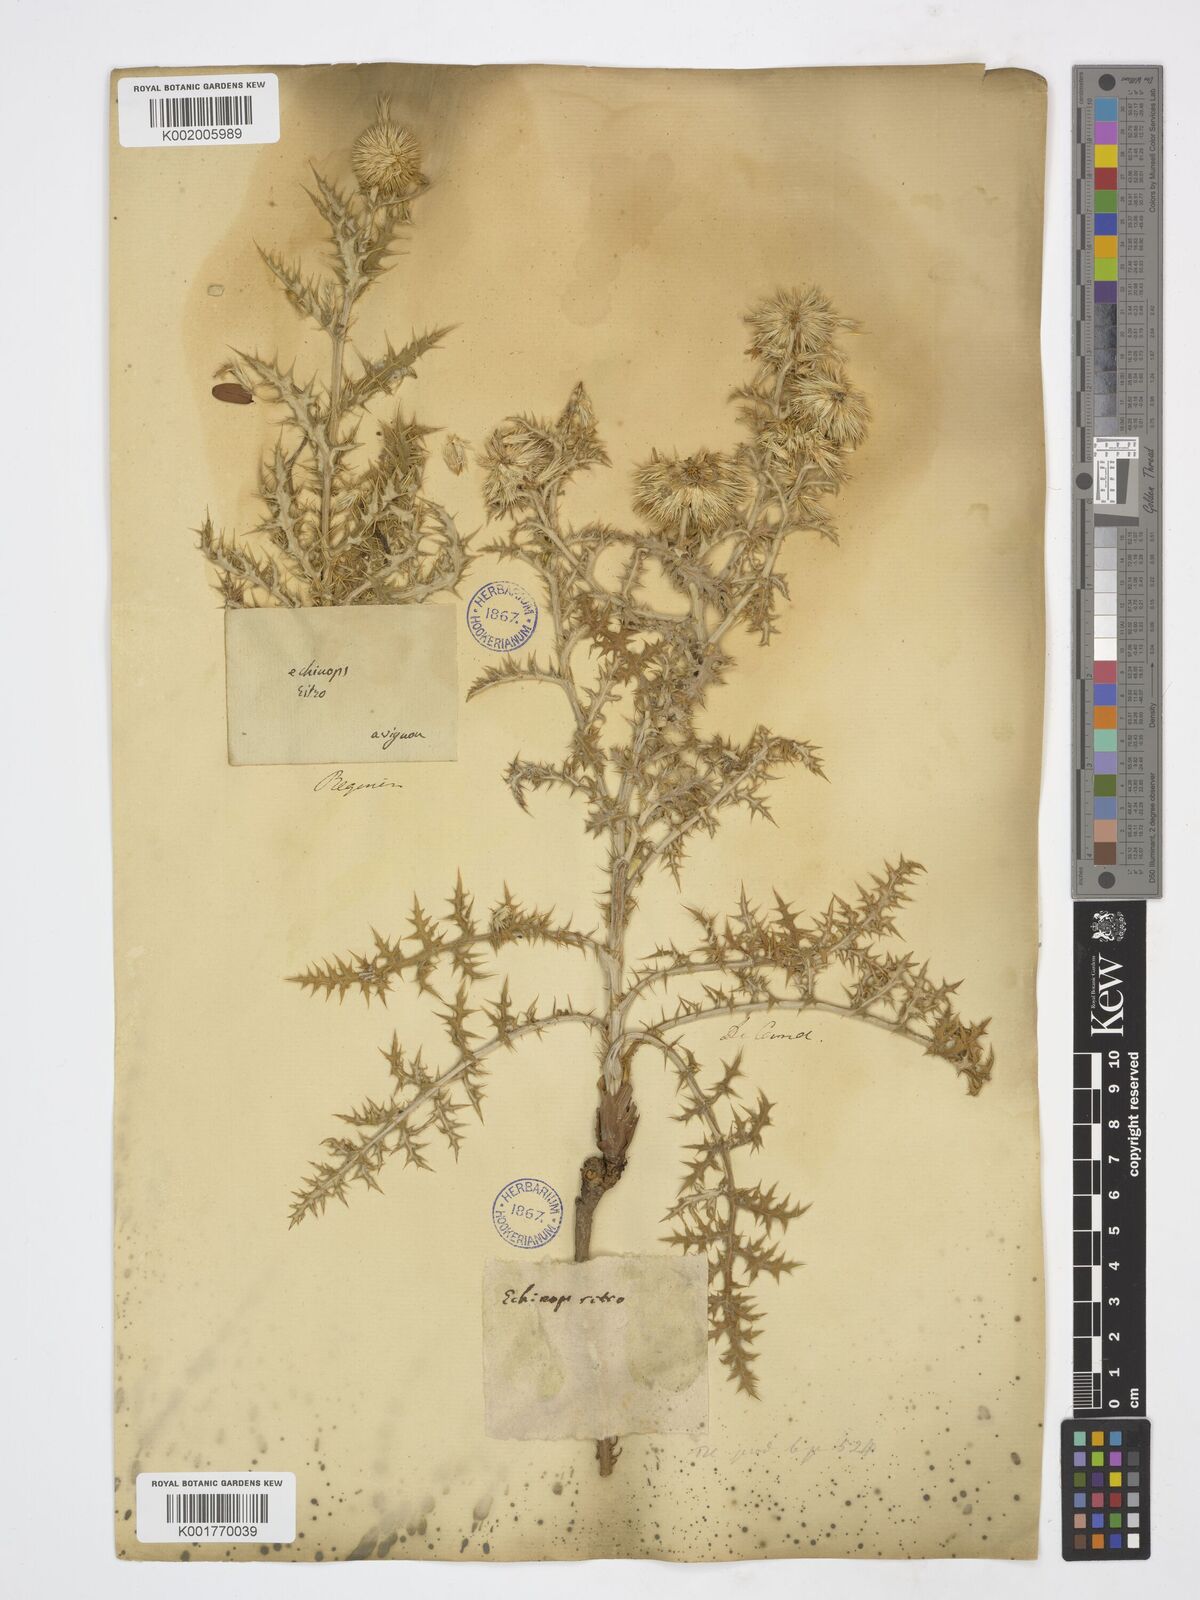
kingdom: Plantae
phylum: Tracheophyta
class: Magnoliopsida
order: Asterales
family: Asteraceae
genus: Echinops
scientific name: Echinops ritro
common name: Globe thistle
